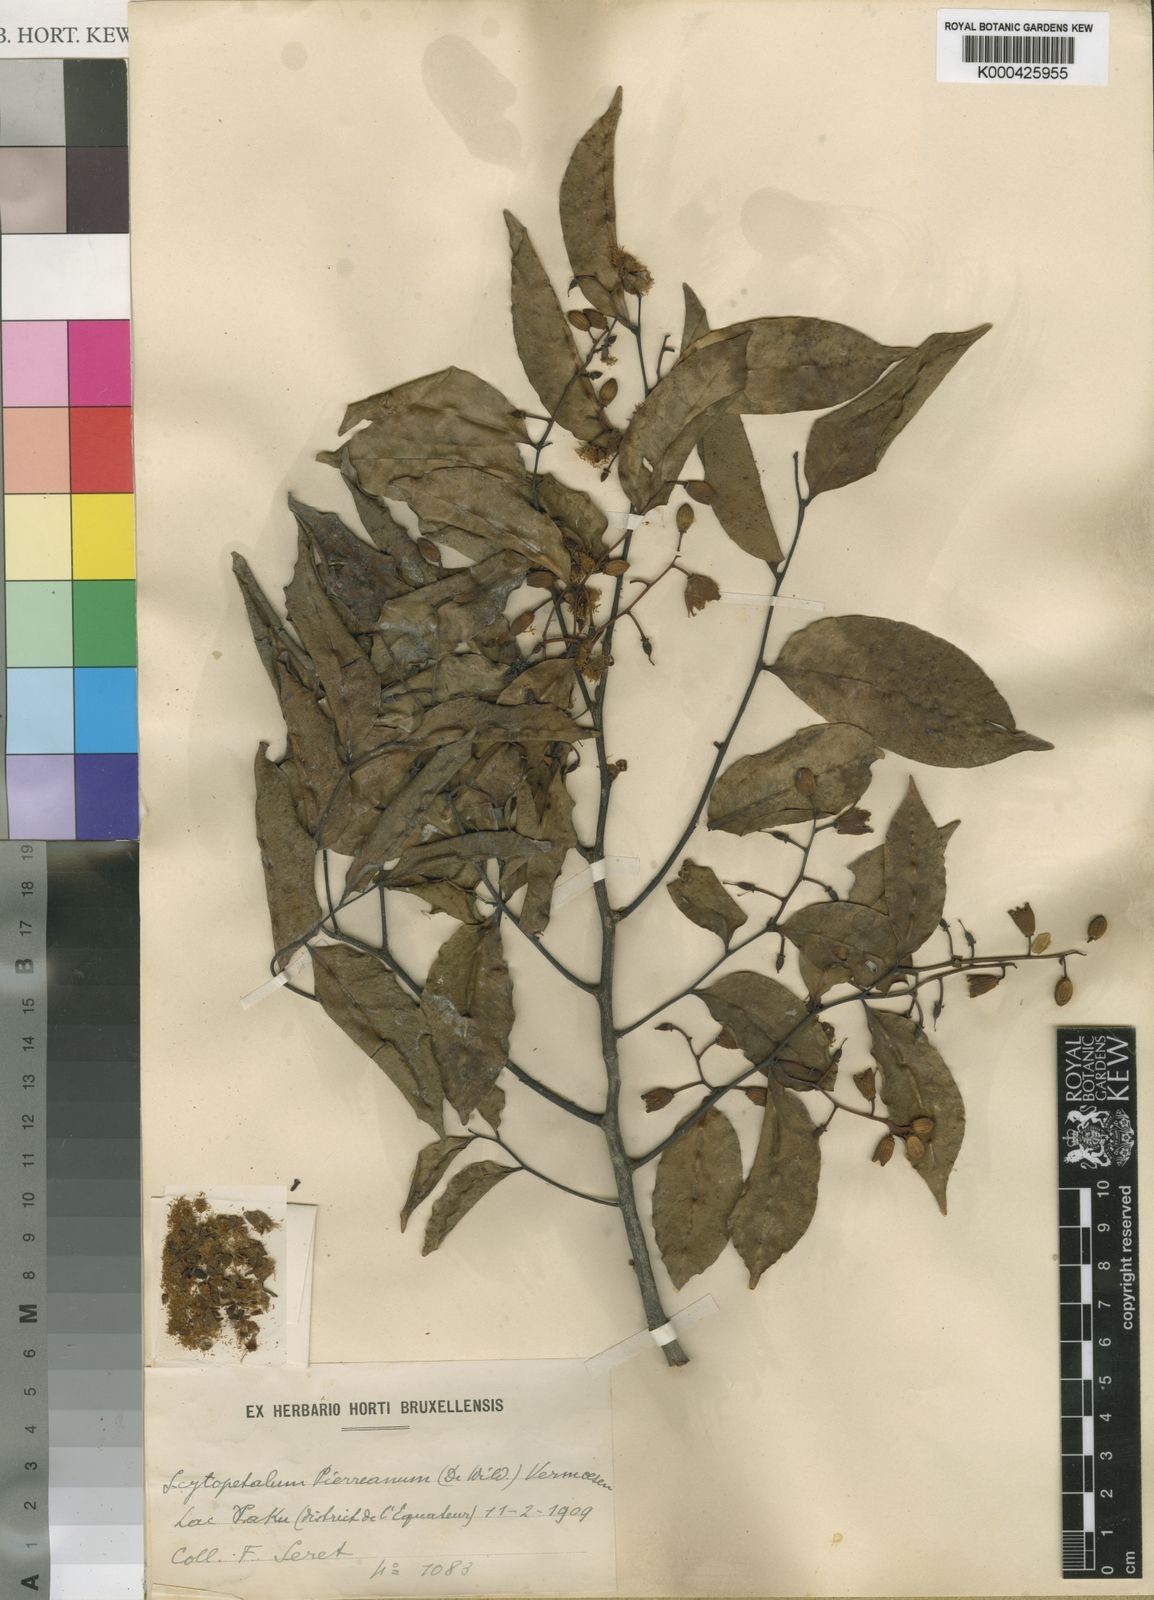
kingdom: Plantae
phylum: Tracheophyta
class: Magnoliopsida
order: Ericales
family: Lecythidaceae
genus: Scytopetalum
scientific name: Scytopetalum pierreanum
